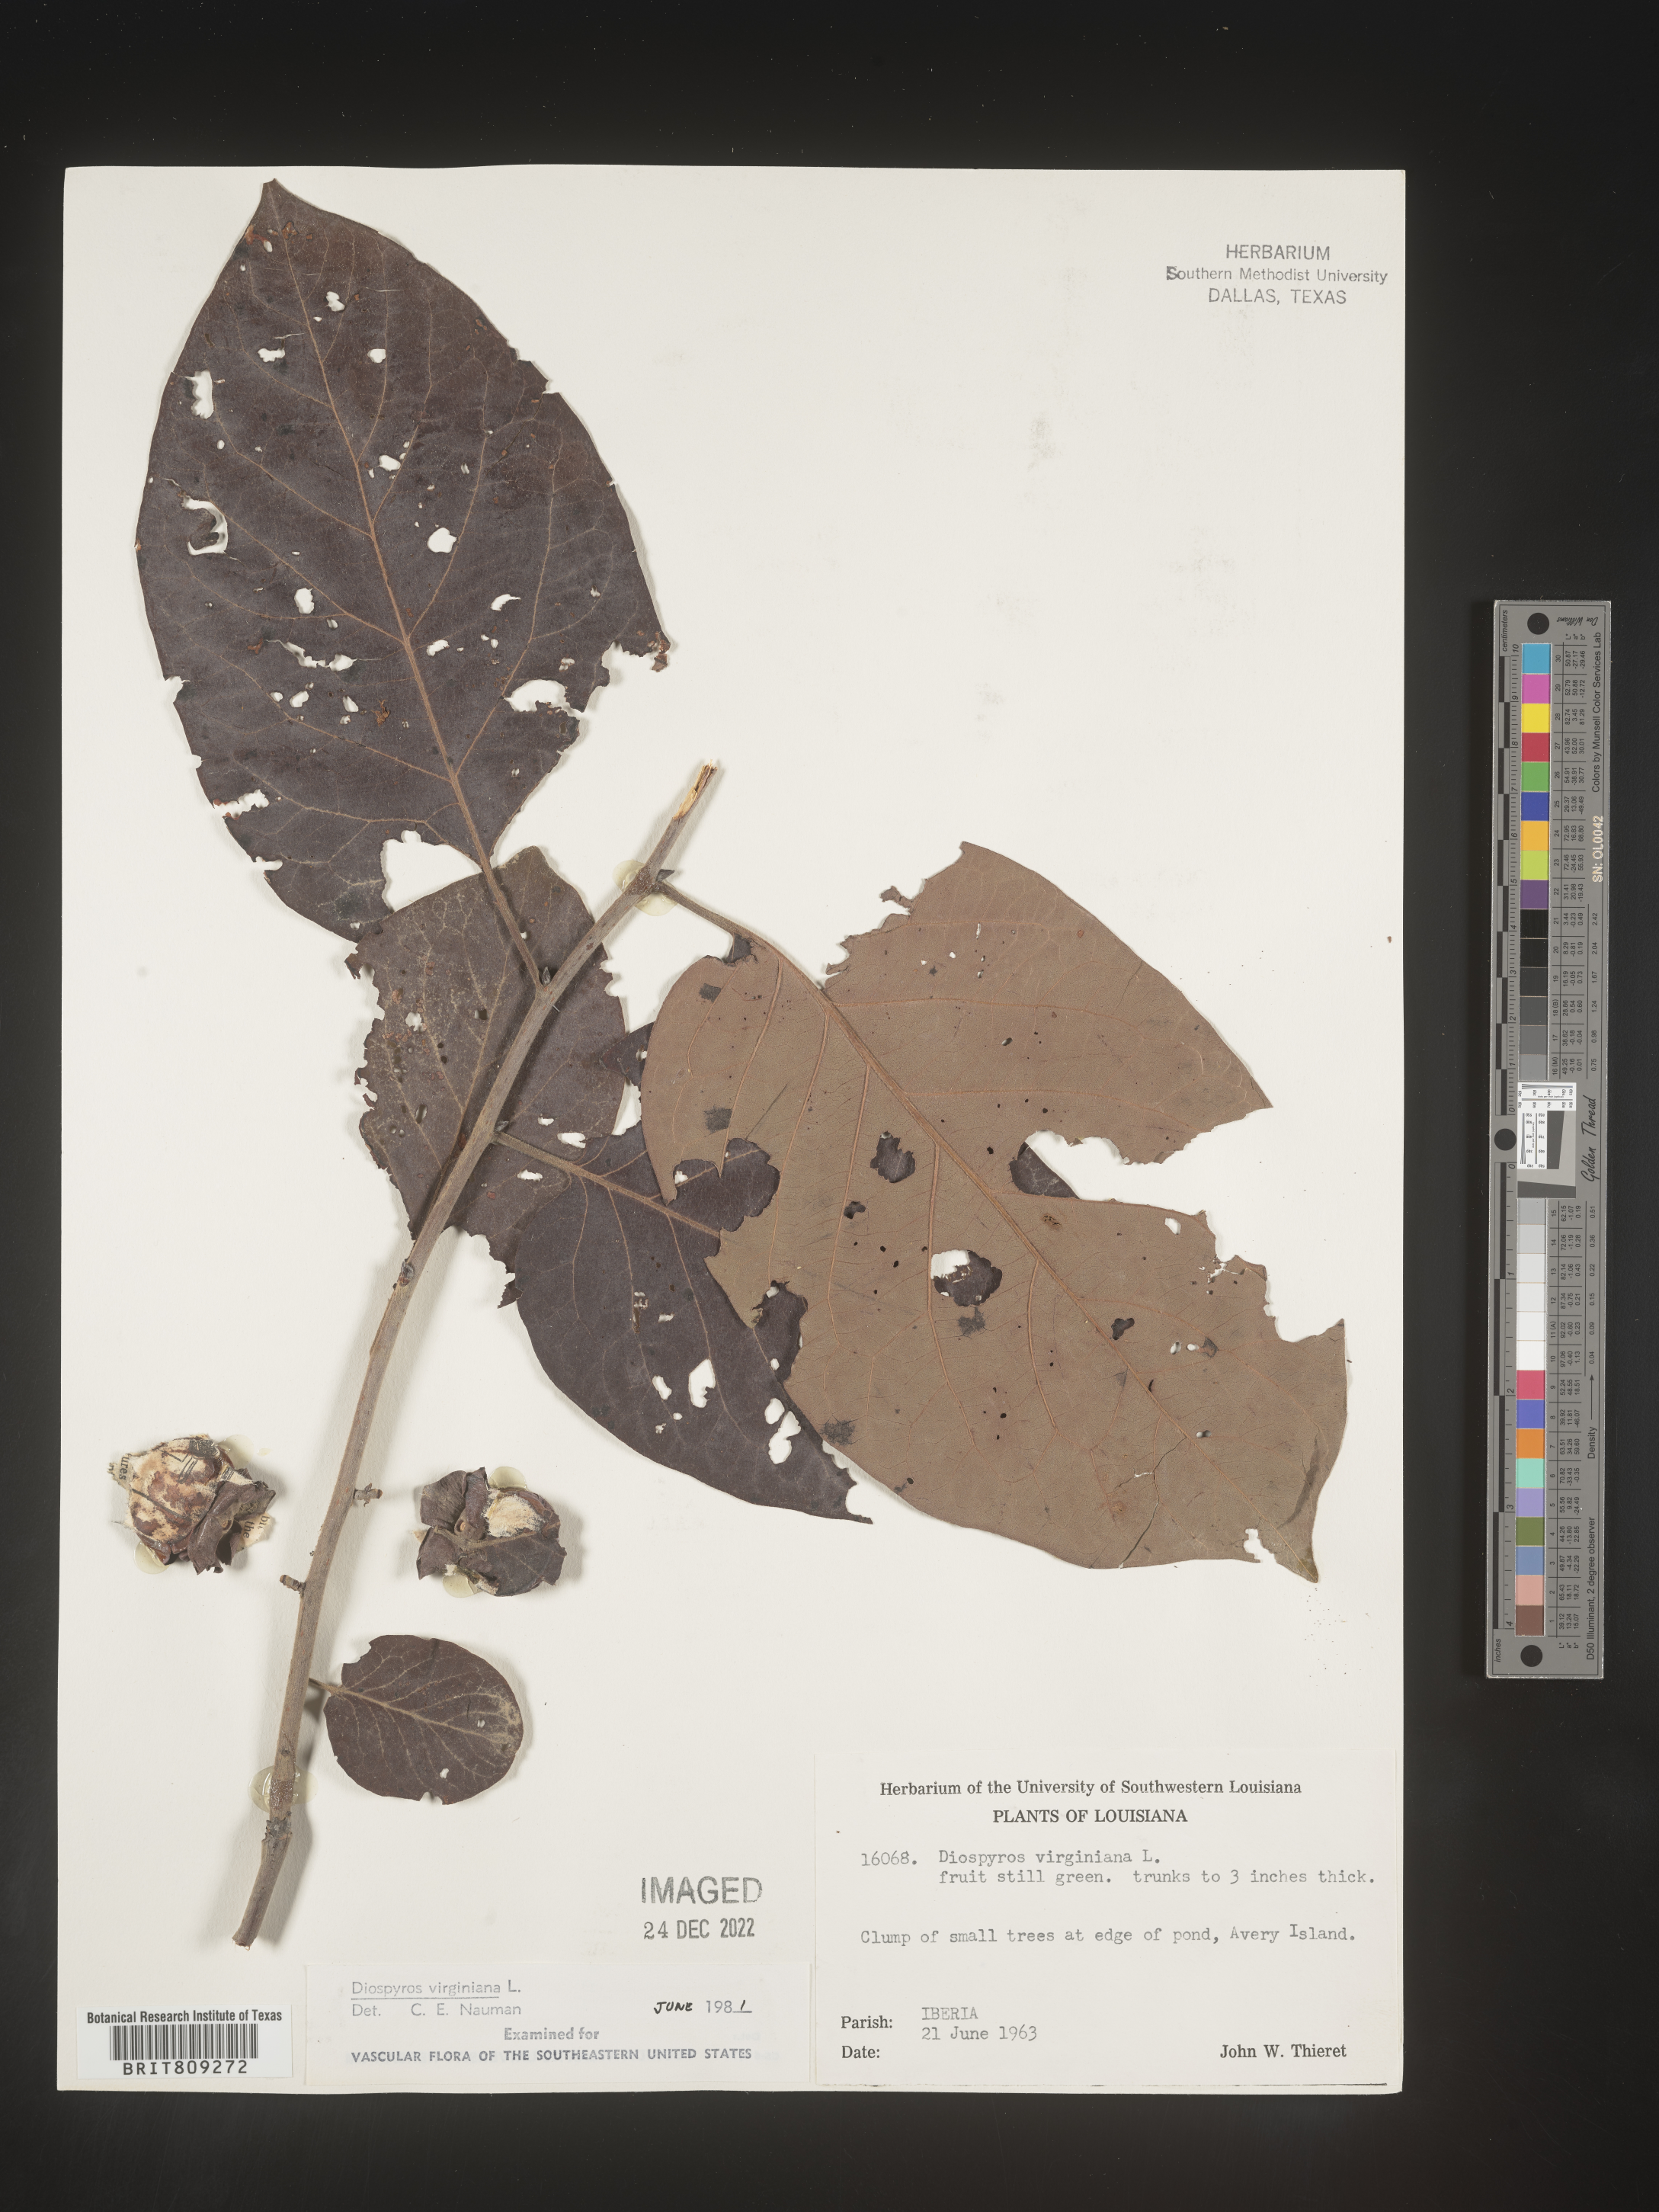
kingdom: Plantae
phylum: Tracheophyta
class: Magnoliopsida
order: Ericales
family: Ebenaceae
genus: Diospyros
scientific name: Diospyros virginiana
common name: Persimmon
